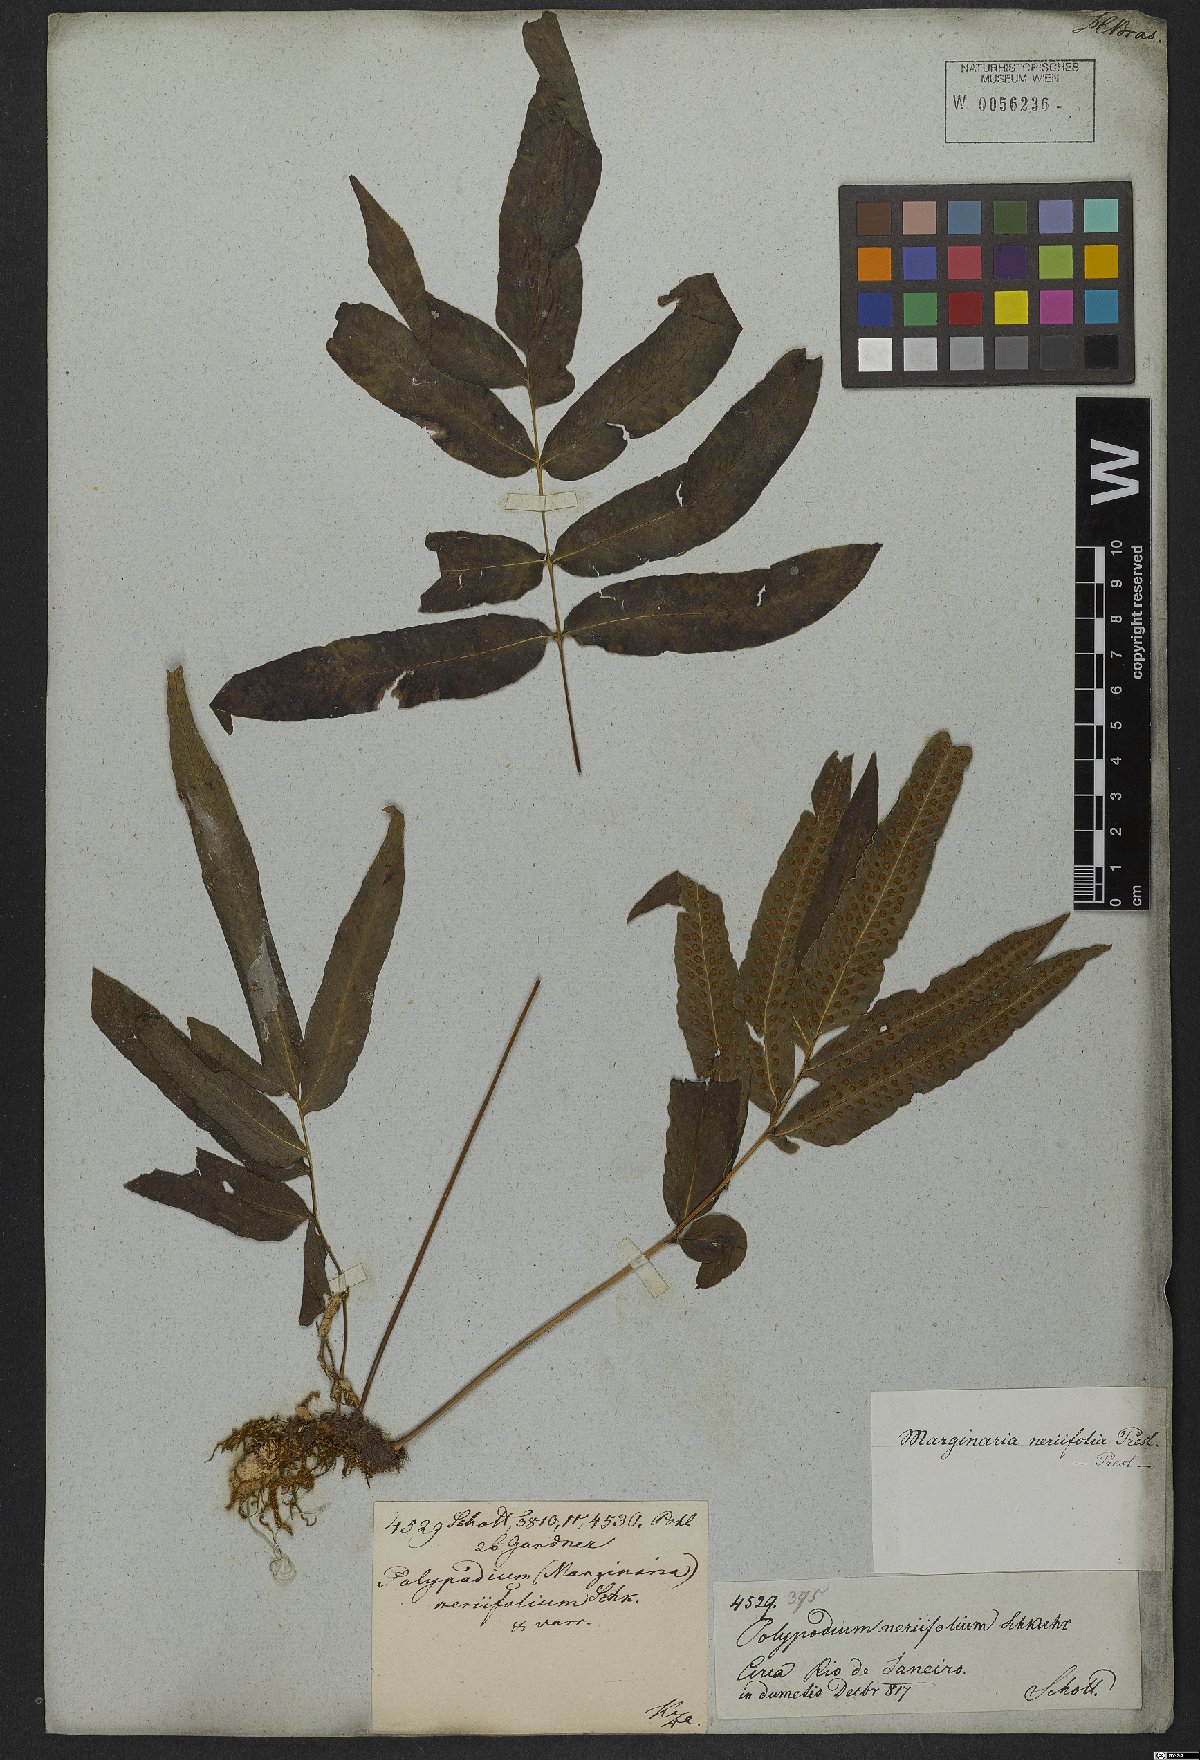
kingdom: Plantae
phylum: Tracheophyta
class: Polypodiopsida
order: Polypodiales
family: Polypodiaceae
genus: Serpocaulon
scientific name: Serpocaulon triseriale
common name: Angle-vein fern
